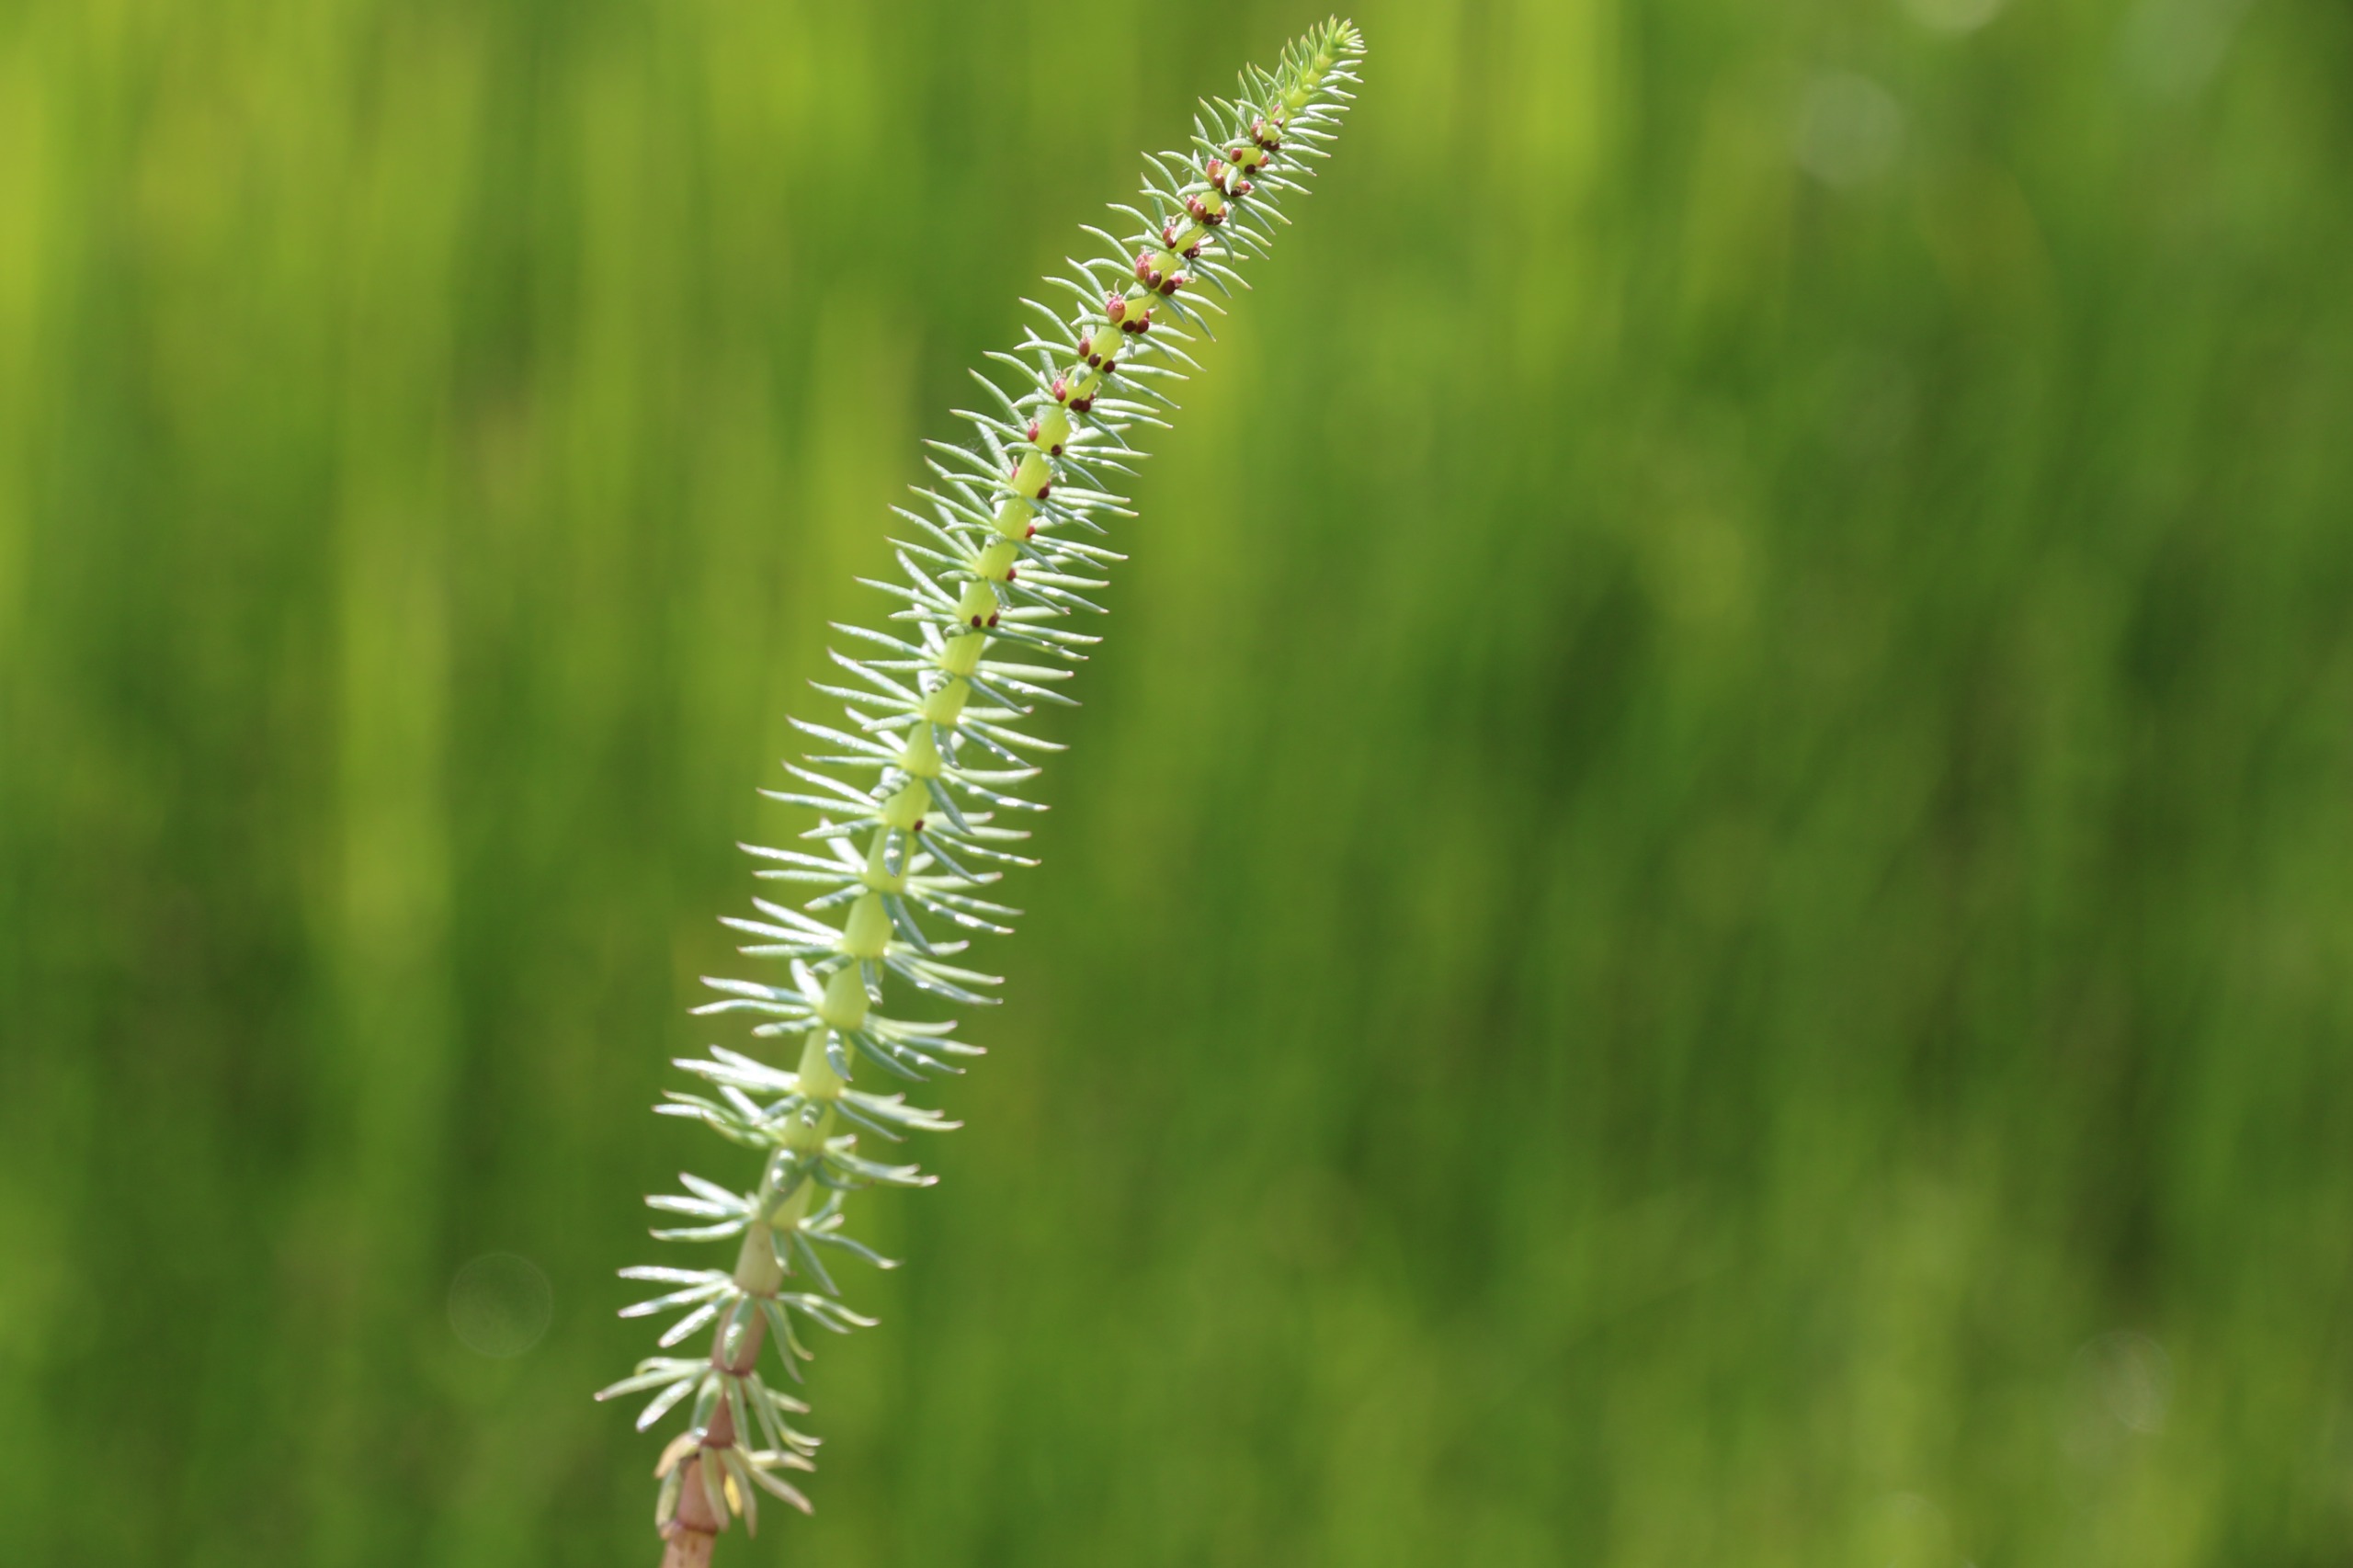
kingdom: Plantae
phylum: Tracheophyta
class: Magnoliopsida
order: Lamiales
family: Plantaginaceae
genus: Hippuris
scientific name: Hippuris vulgaris
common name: Vandspir
